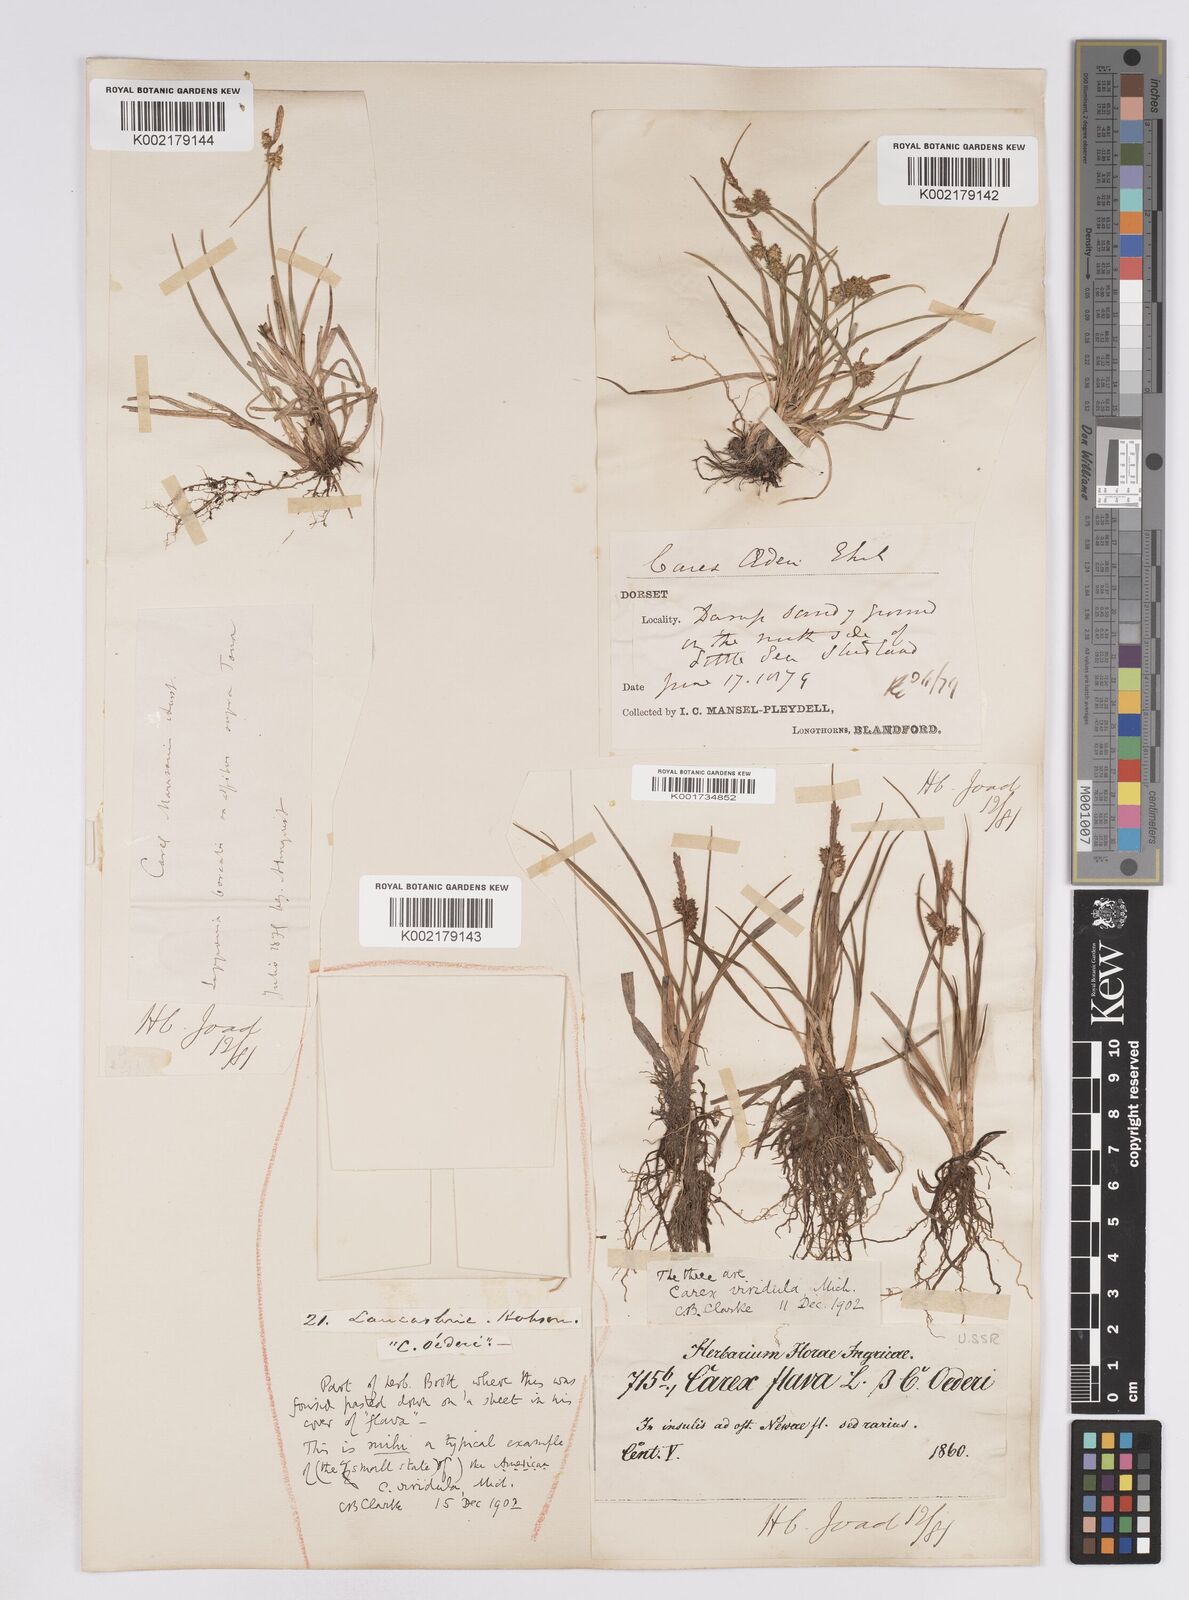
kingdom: Plantae
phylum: Tracheophyta
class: Liliopsida
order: Poales
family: Cyperaceae
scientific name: Cyperaceae
